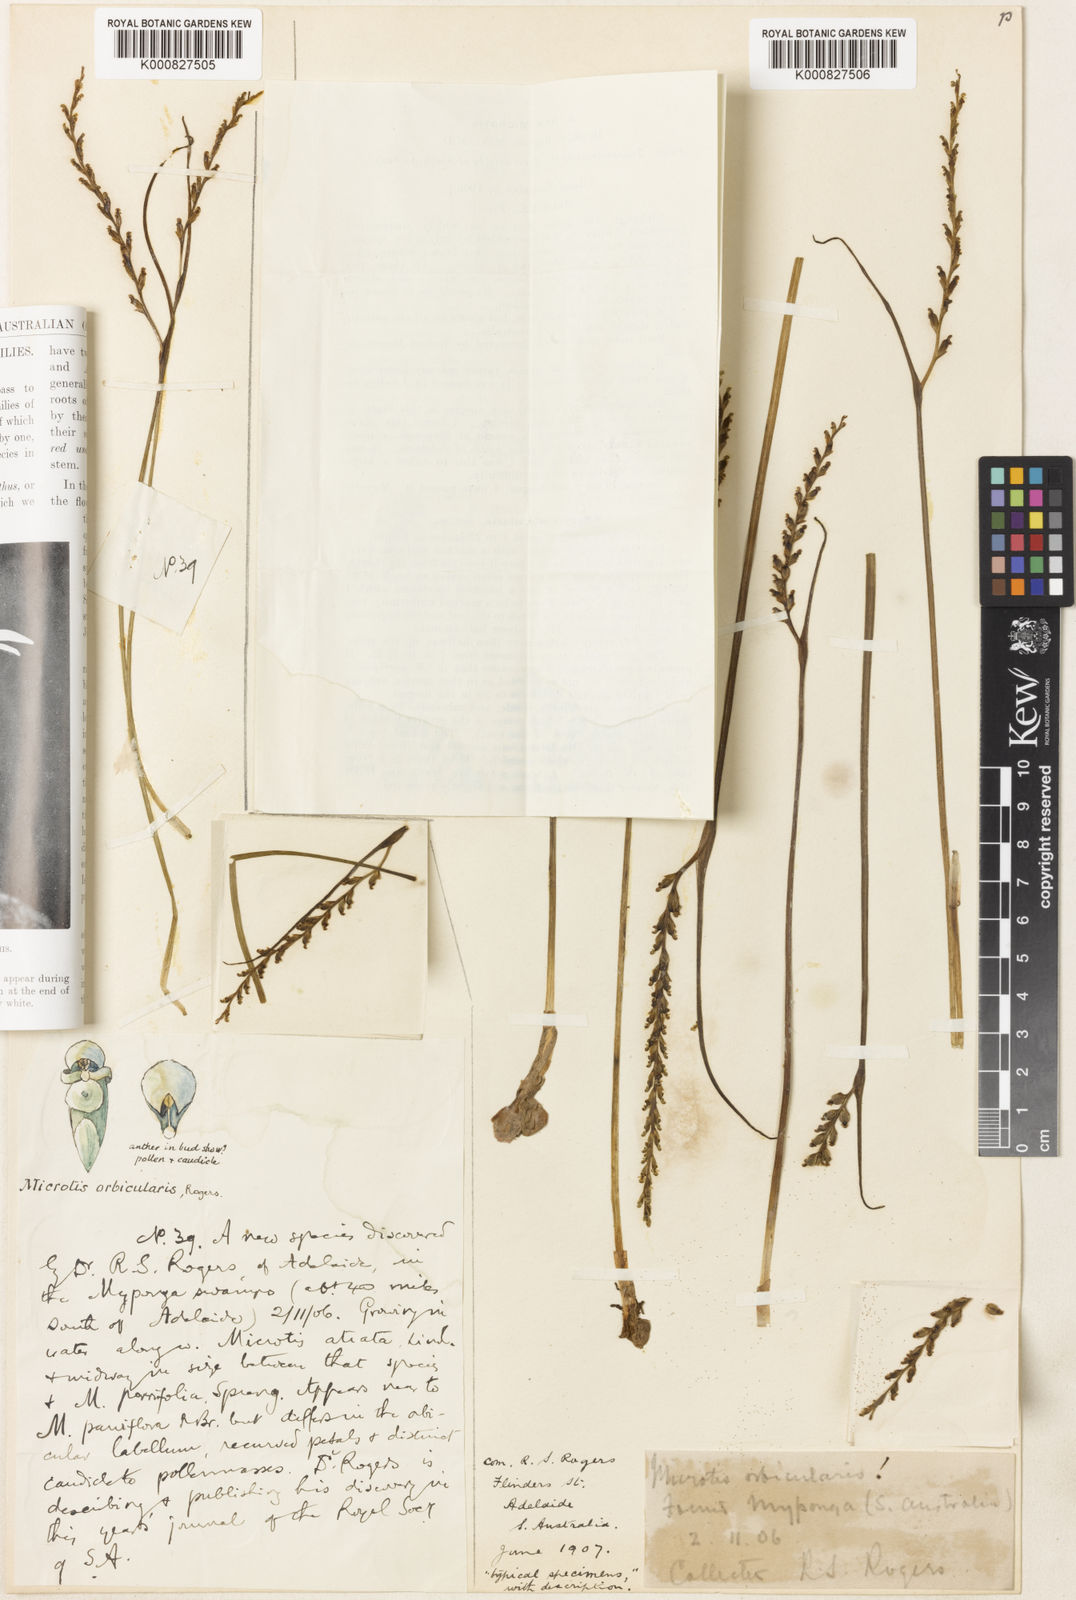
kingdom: Plantae
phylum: Tracheophyta
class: Liliopsida
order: Asparagales
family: Orchidaceae
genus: Microtis
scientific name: Microtis orbicularis
